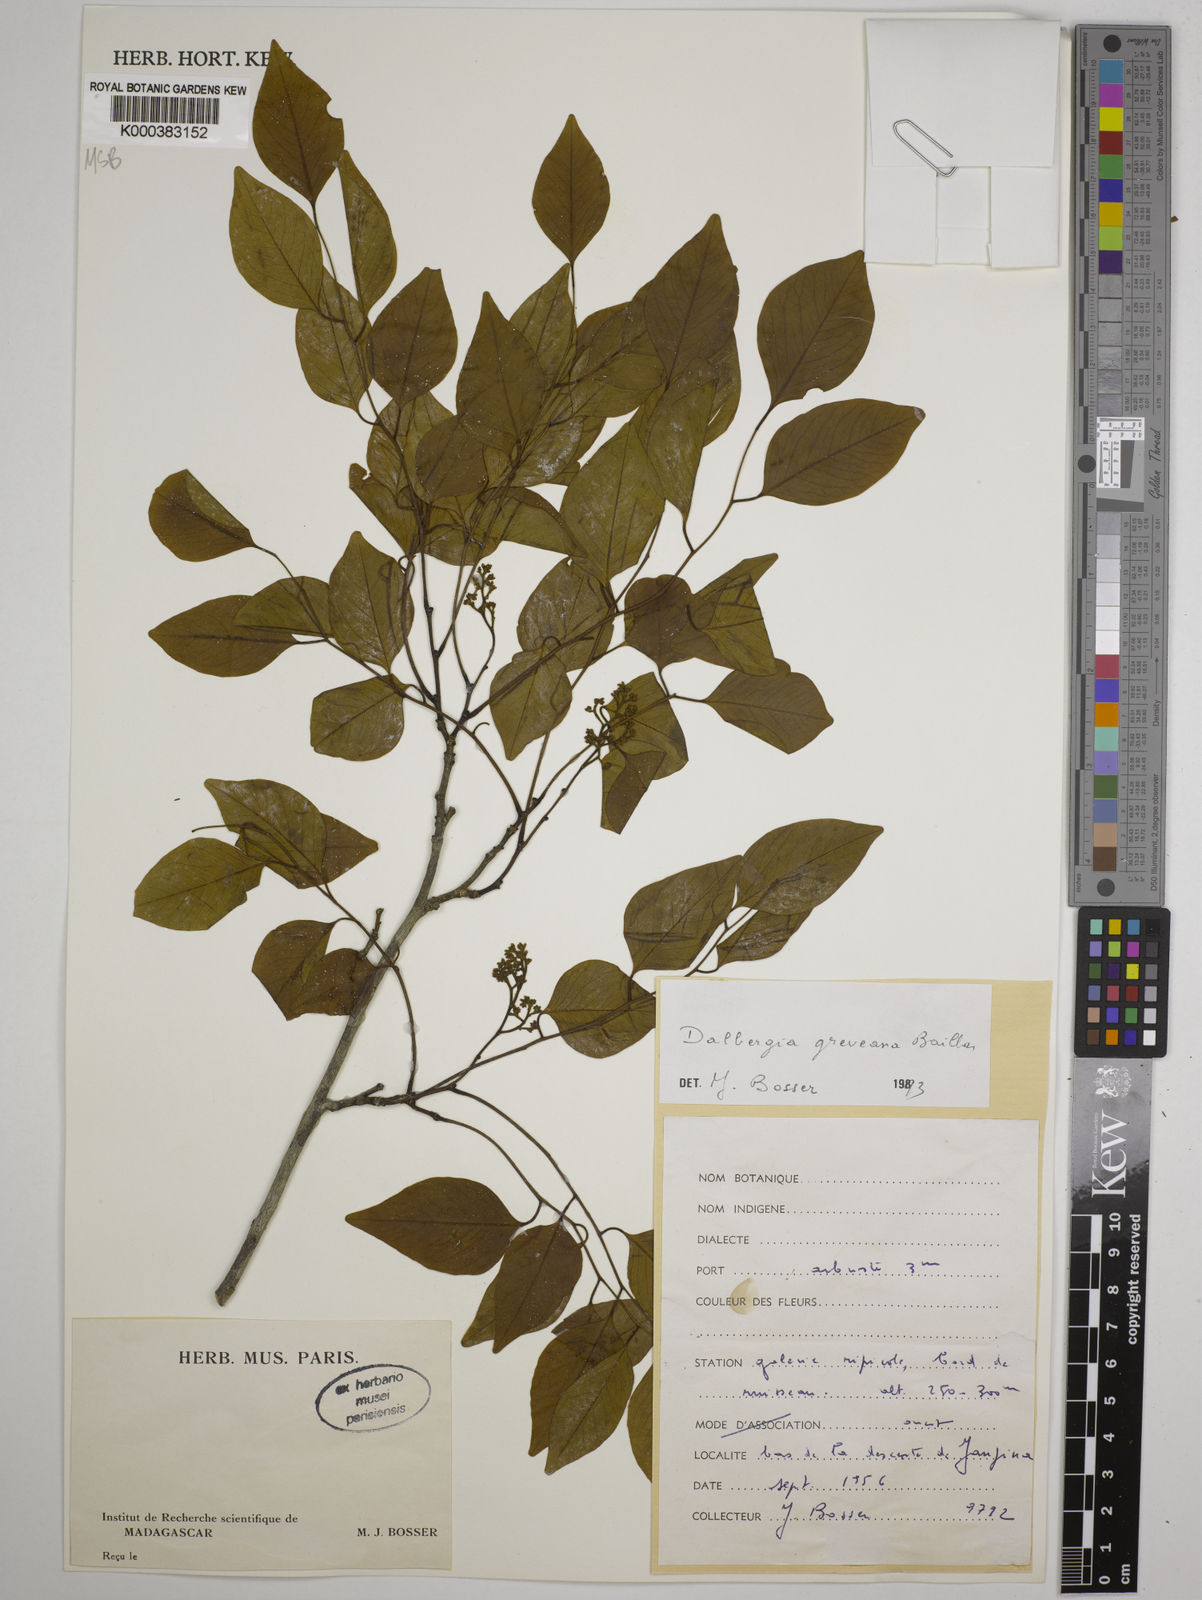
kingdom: Plantae
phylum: Tracheophyta
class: Magnoliopsida
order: Fabales
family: Fabaceae
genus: Dalbergia
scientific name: Dalbergia greveana
